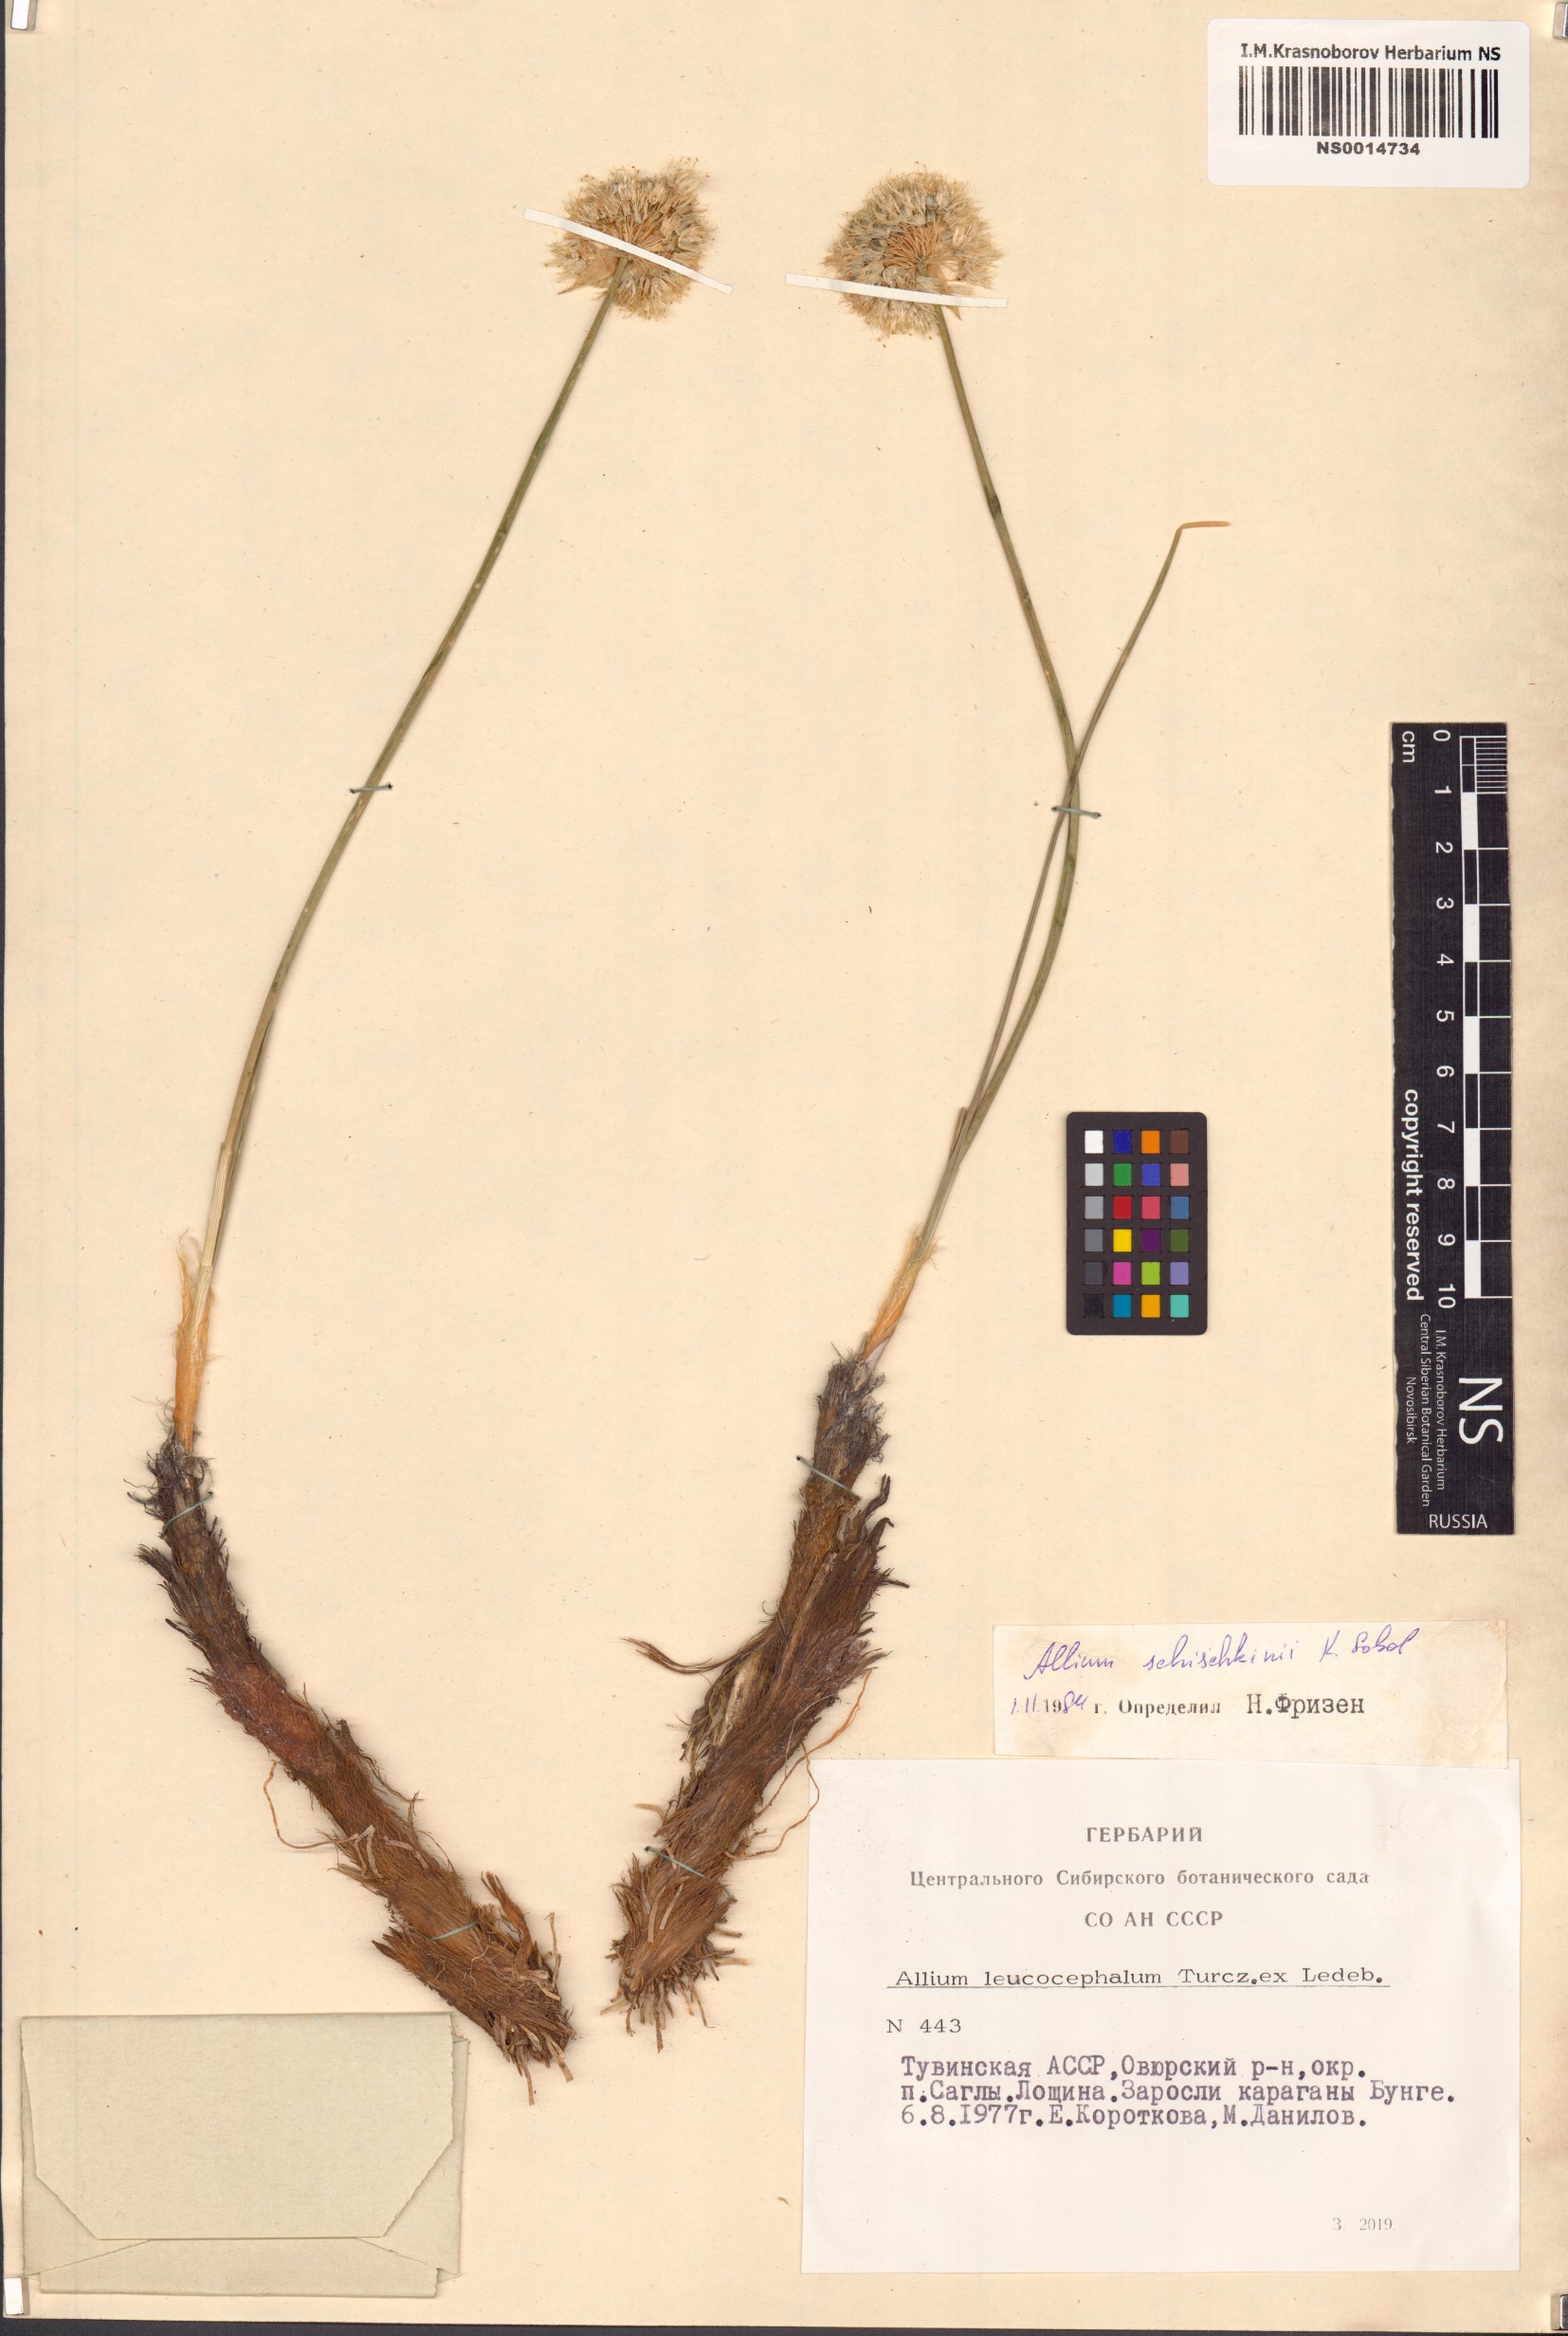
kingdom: Plantae
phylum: Tracheophyta
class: Liliopsida
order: Asparagales
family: Amaryllidaceae
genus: Allium
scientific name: Allium schischkinii
